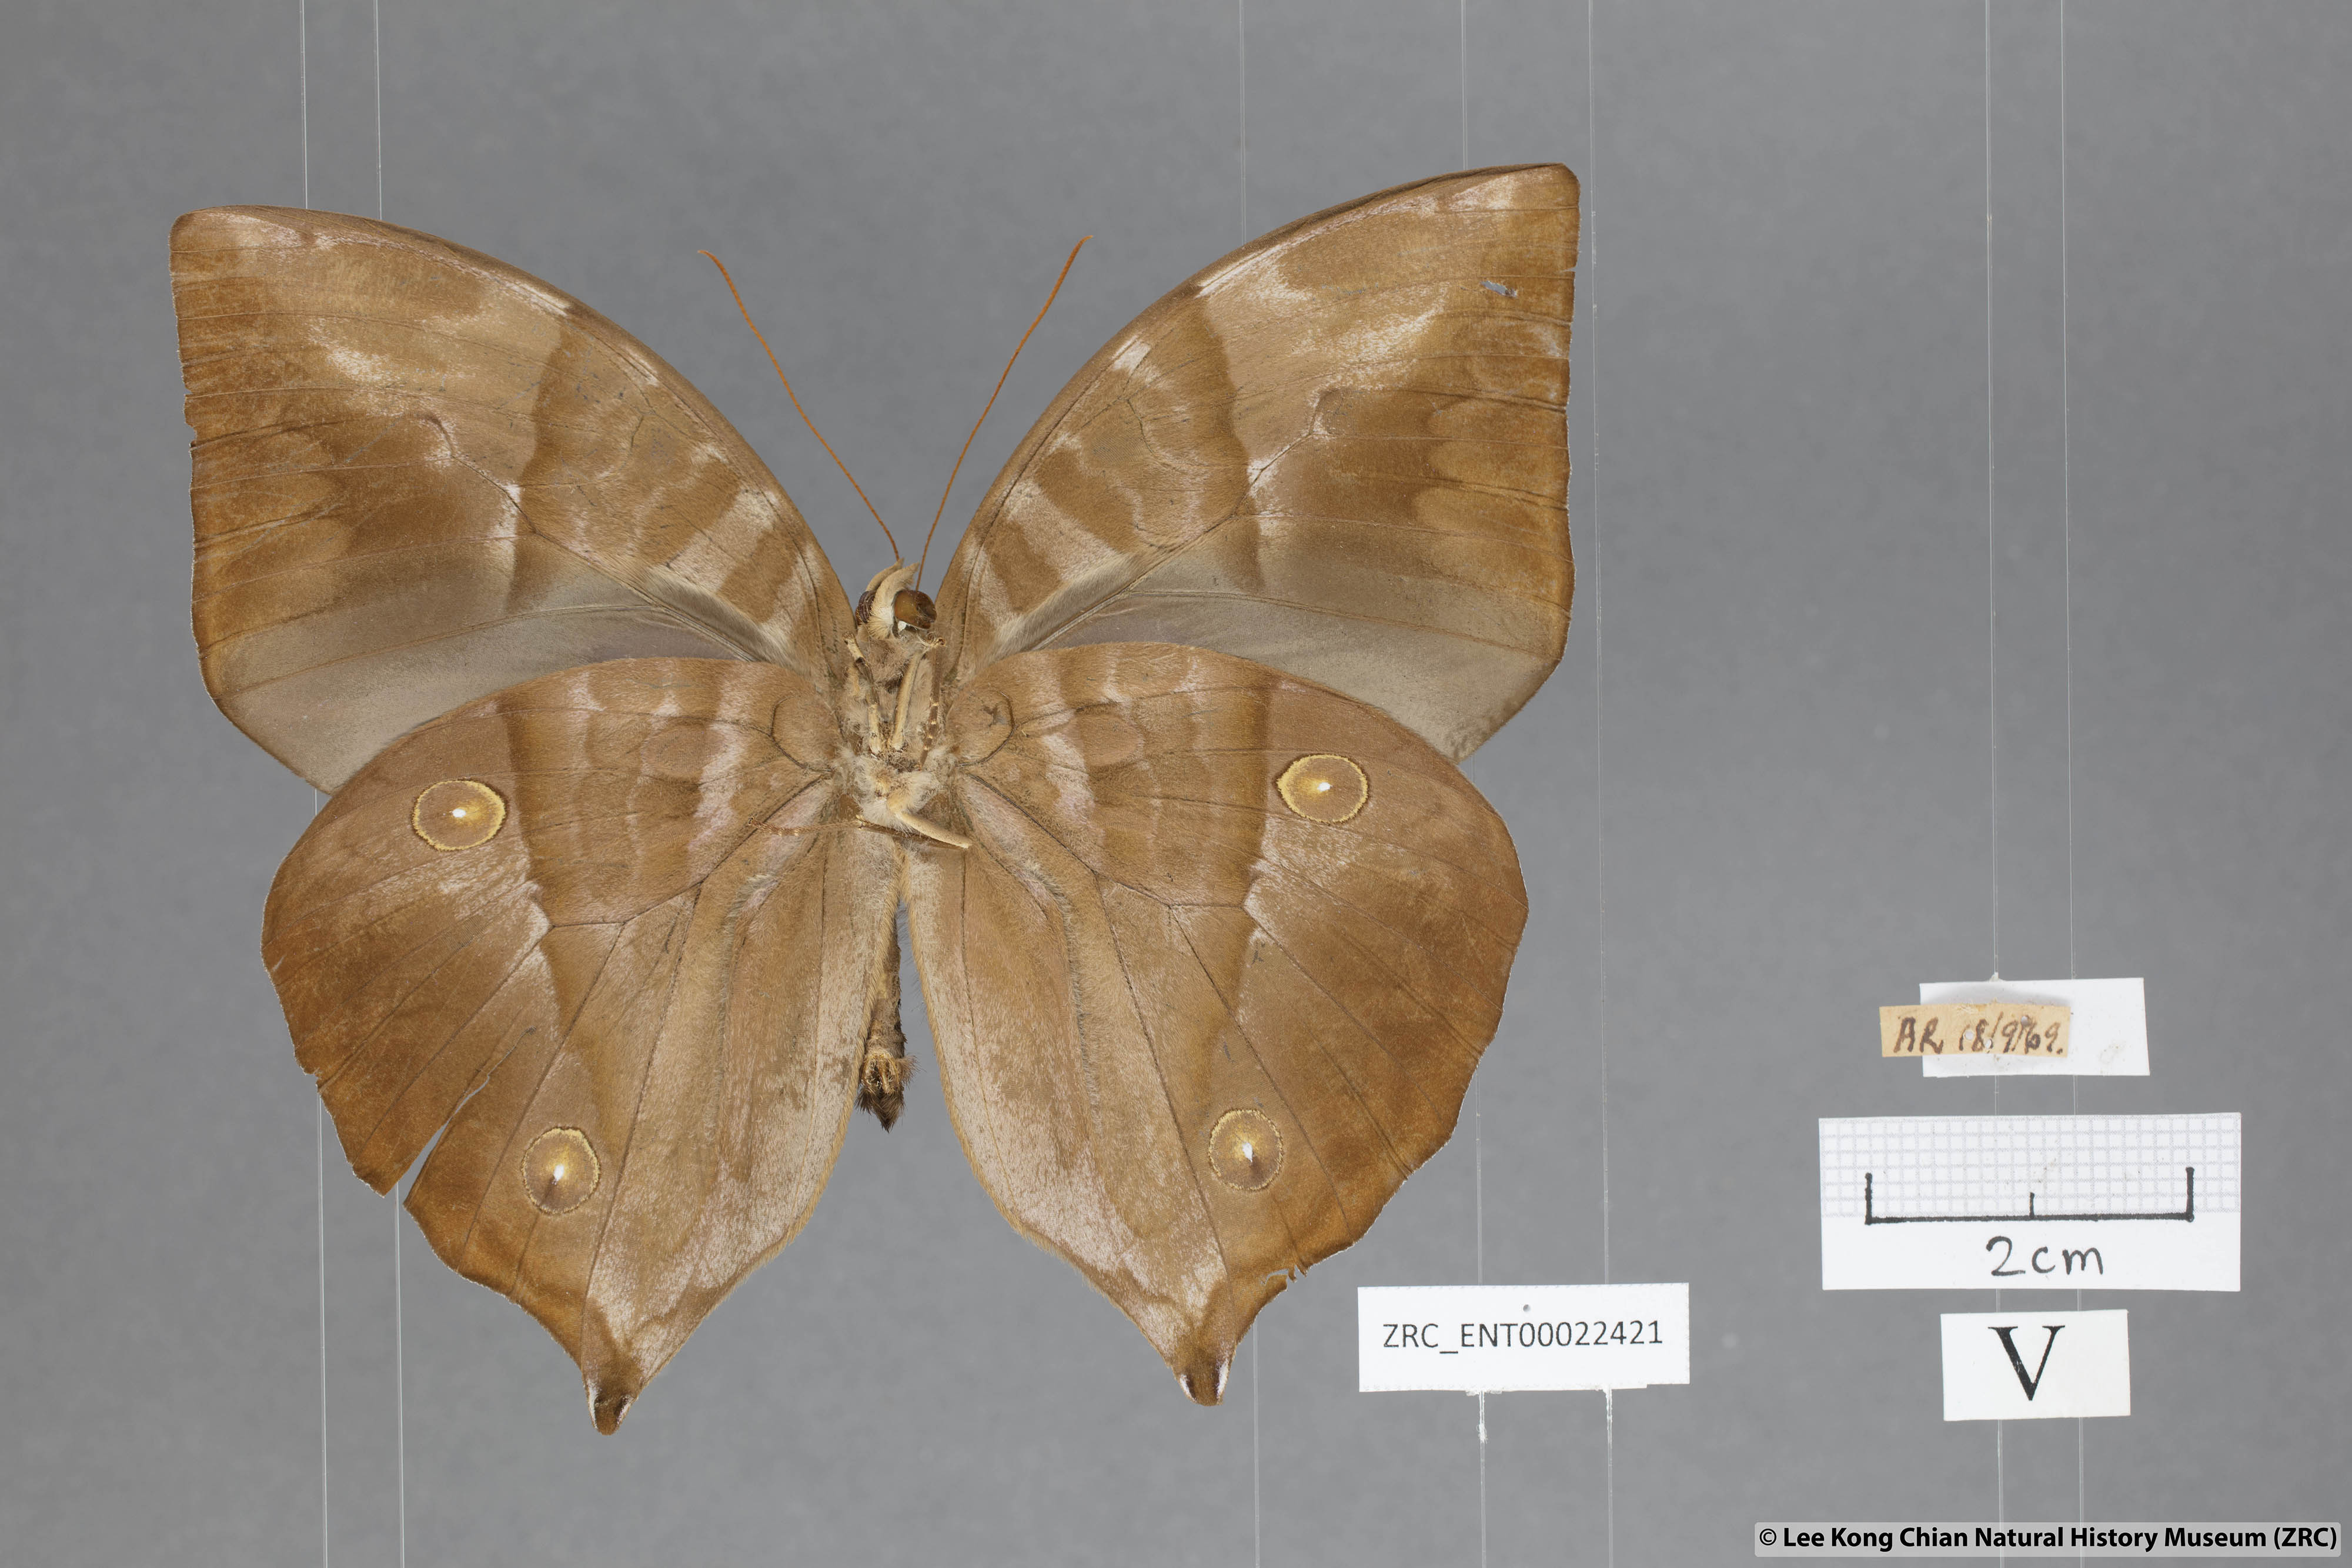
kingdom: Animalia
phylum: Arthropoda
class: Insecta
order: Lepidoptera
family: Nymphalidae
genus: Zeuxidia
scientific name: Zeuxidia ameythystus
